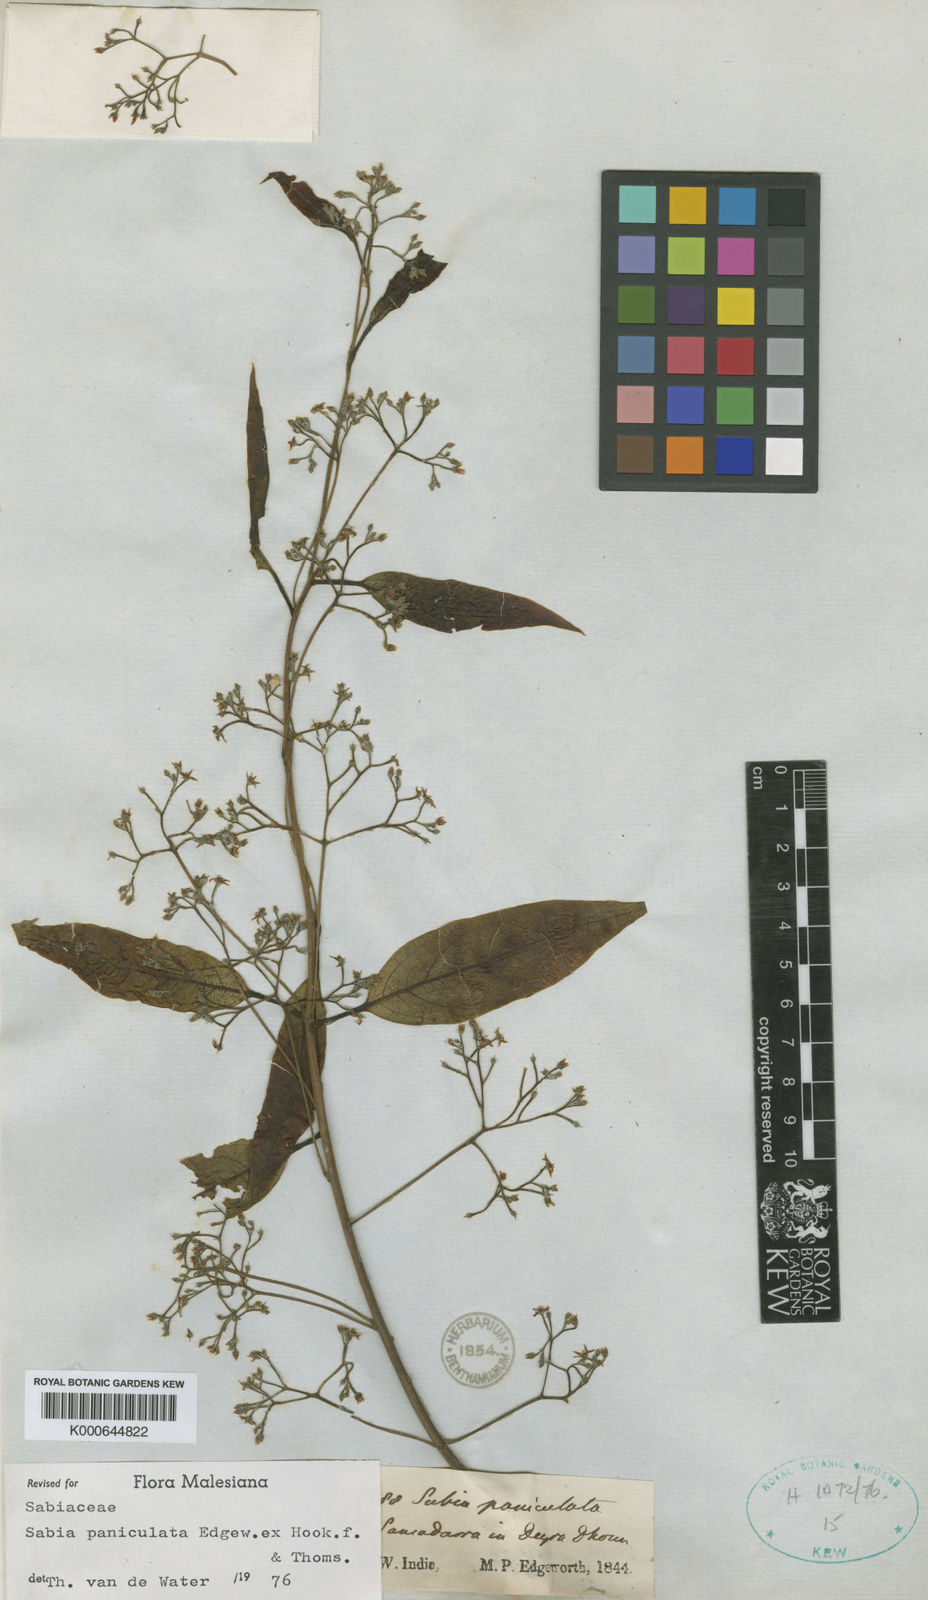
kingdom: Plantae
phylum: Tracheophyta
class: Magnoliopsida
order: Proteales
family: Sabiaceae
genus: Sabia
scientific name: Sabia paniculata
